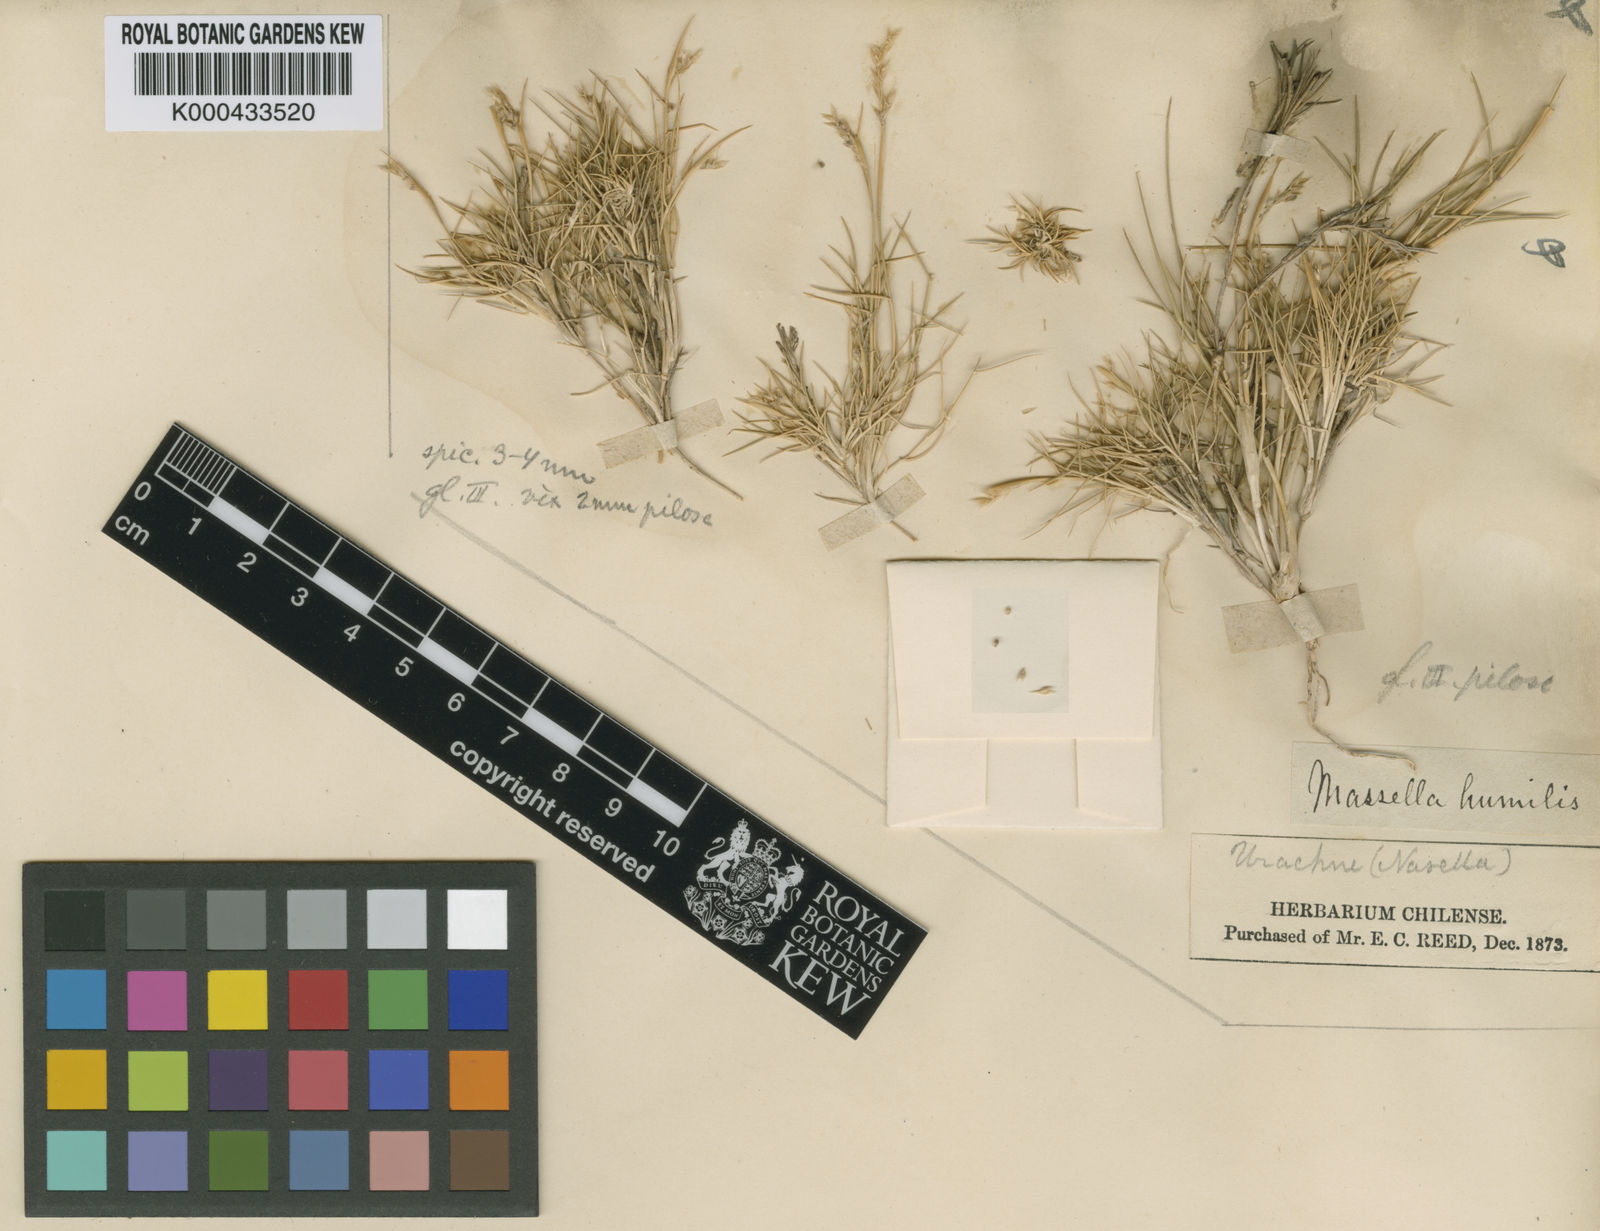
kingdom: Plantae
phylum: Tracheophyta
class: Liliopsida
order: Poales
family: Poaceae
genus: Nassella
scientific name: Nassella pungens
